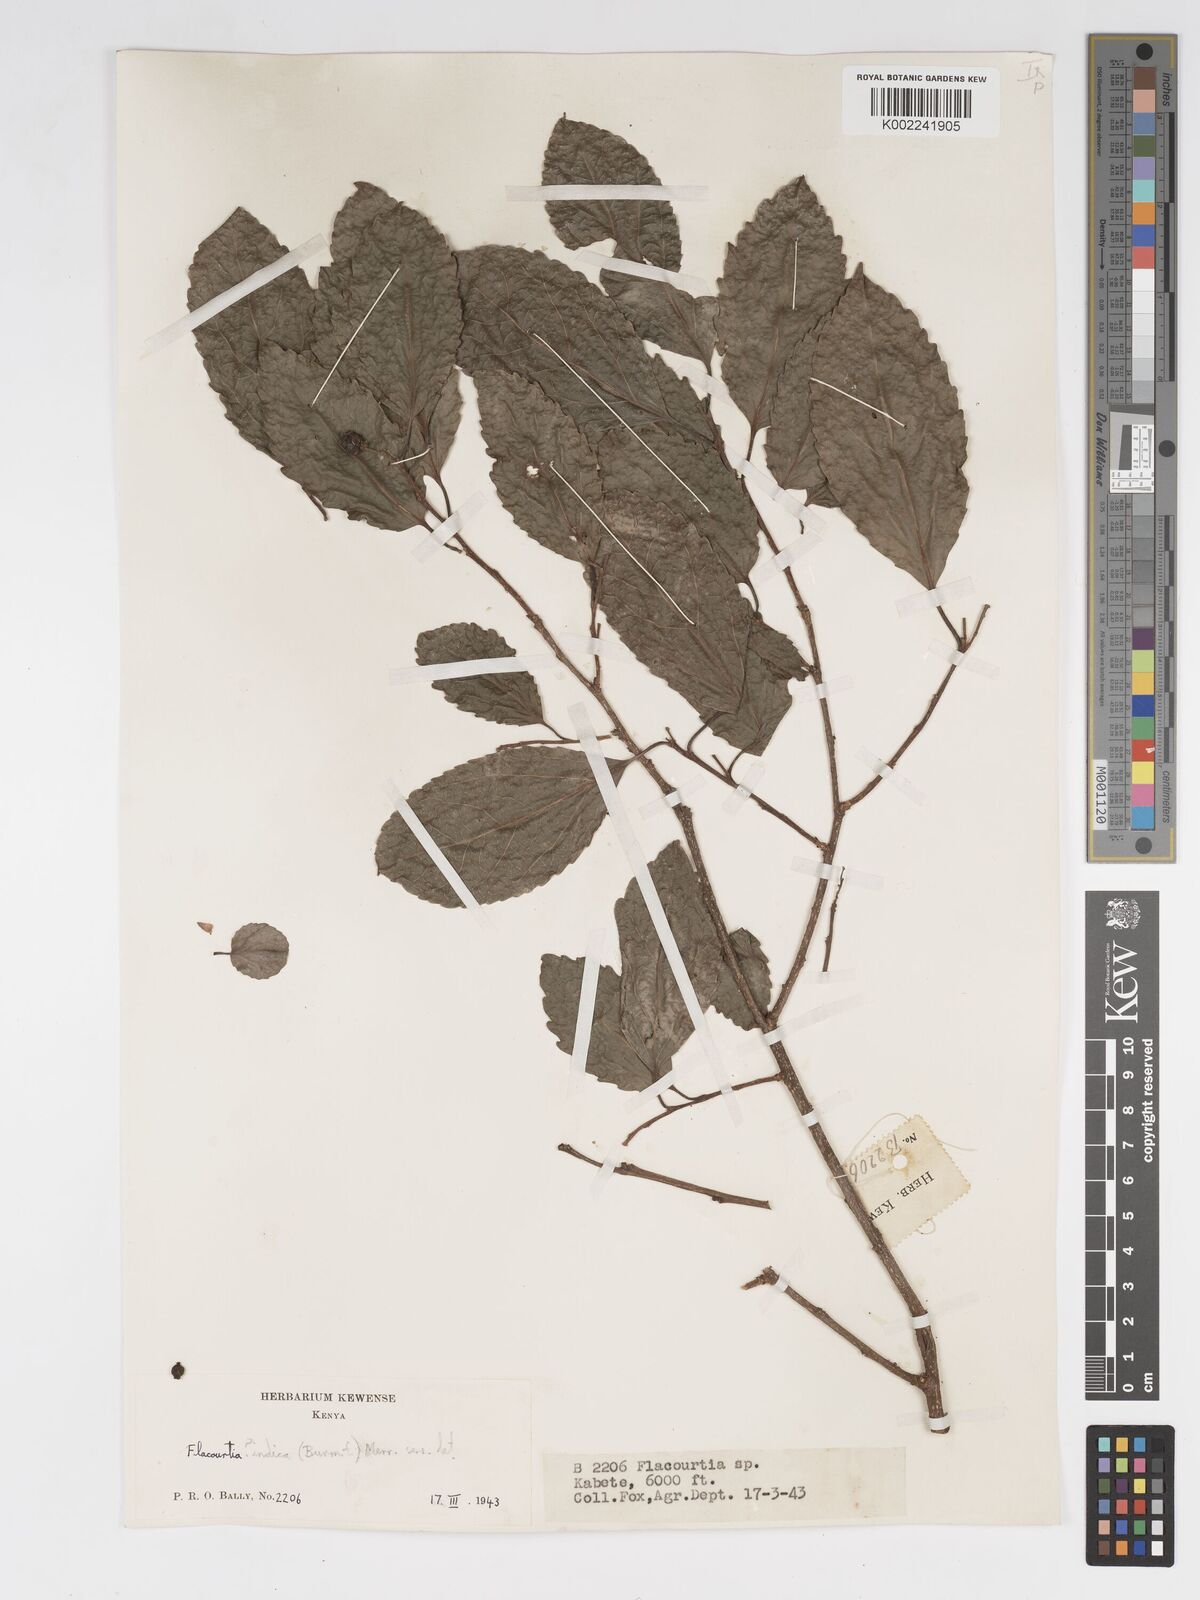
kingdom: Plantae
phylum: Tracheophyta
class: Magnoliopsida
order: Malpighiales
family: Salicaceae
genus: Flacourtia
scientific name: Flacourtia indica
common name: Governor's plum
